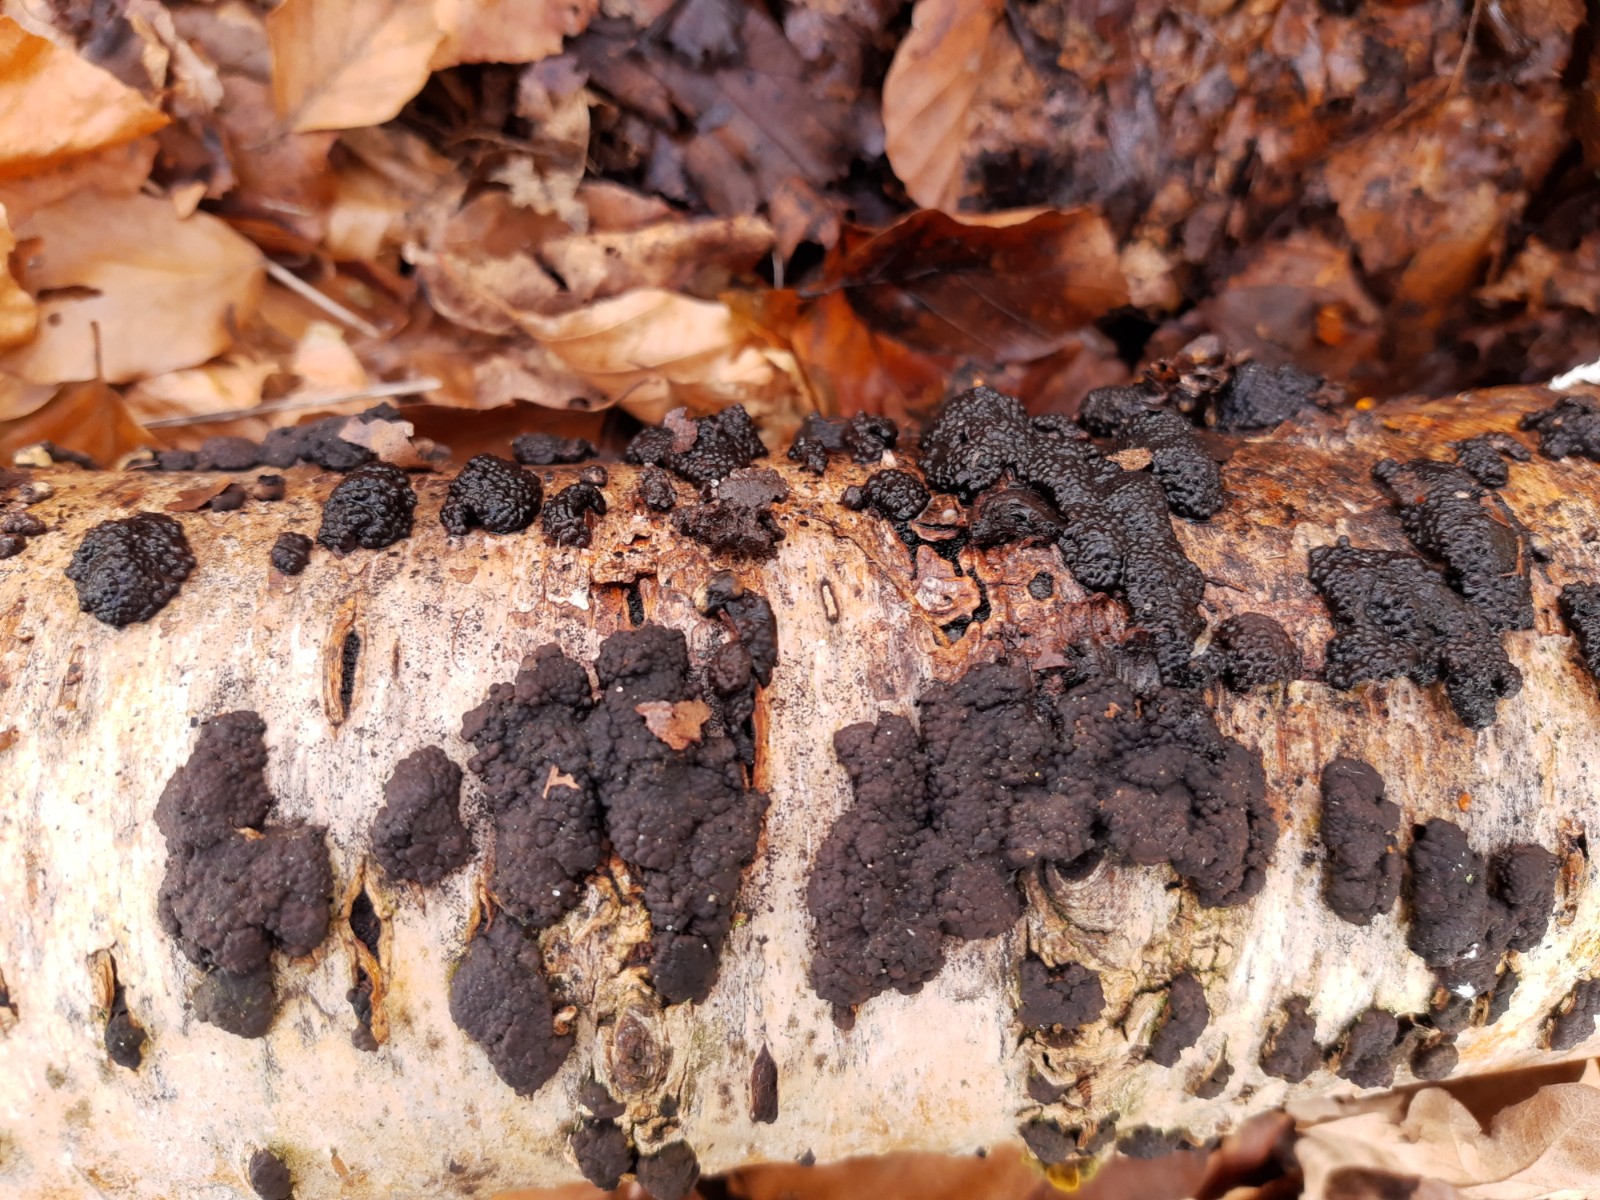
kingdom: Fungi
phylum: Ascomycota
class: Sordariomycetes
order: Xylariales
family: Hypoxylaceae
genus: Jackrogersella
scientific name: Jackrogersella multiformis
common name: foranderlig kulbær
